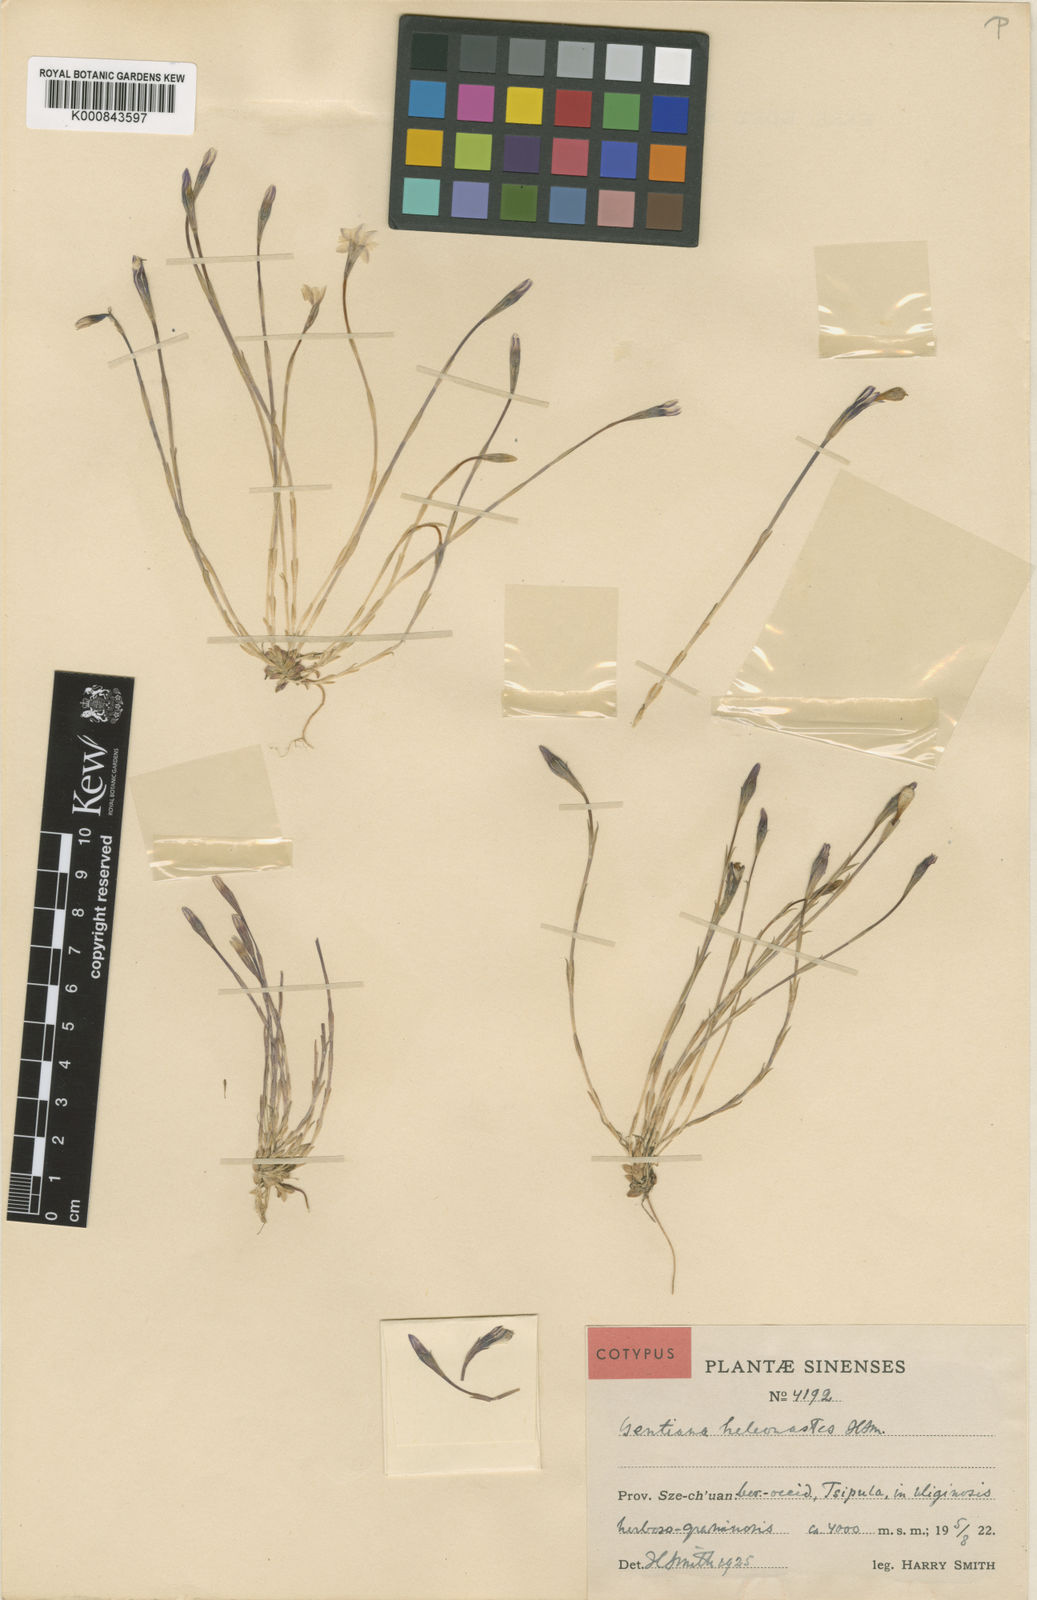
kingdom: Plantae
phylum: Tracheophyta
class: Magnoliopsida
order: Gentianales
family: Gentianaceae
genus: Gentiana
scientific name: Gentiana heleonastes
